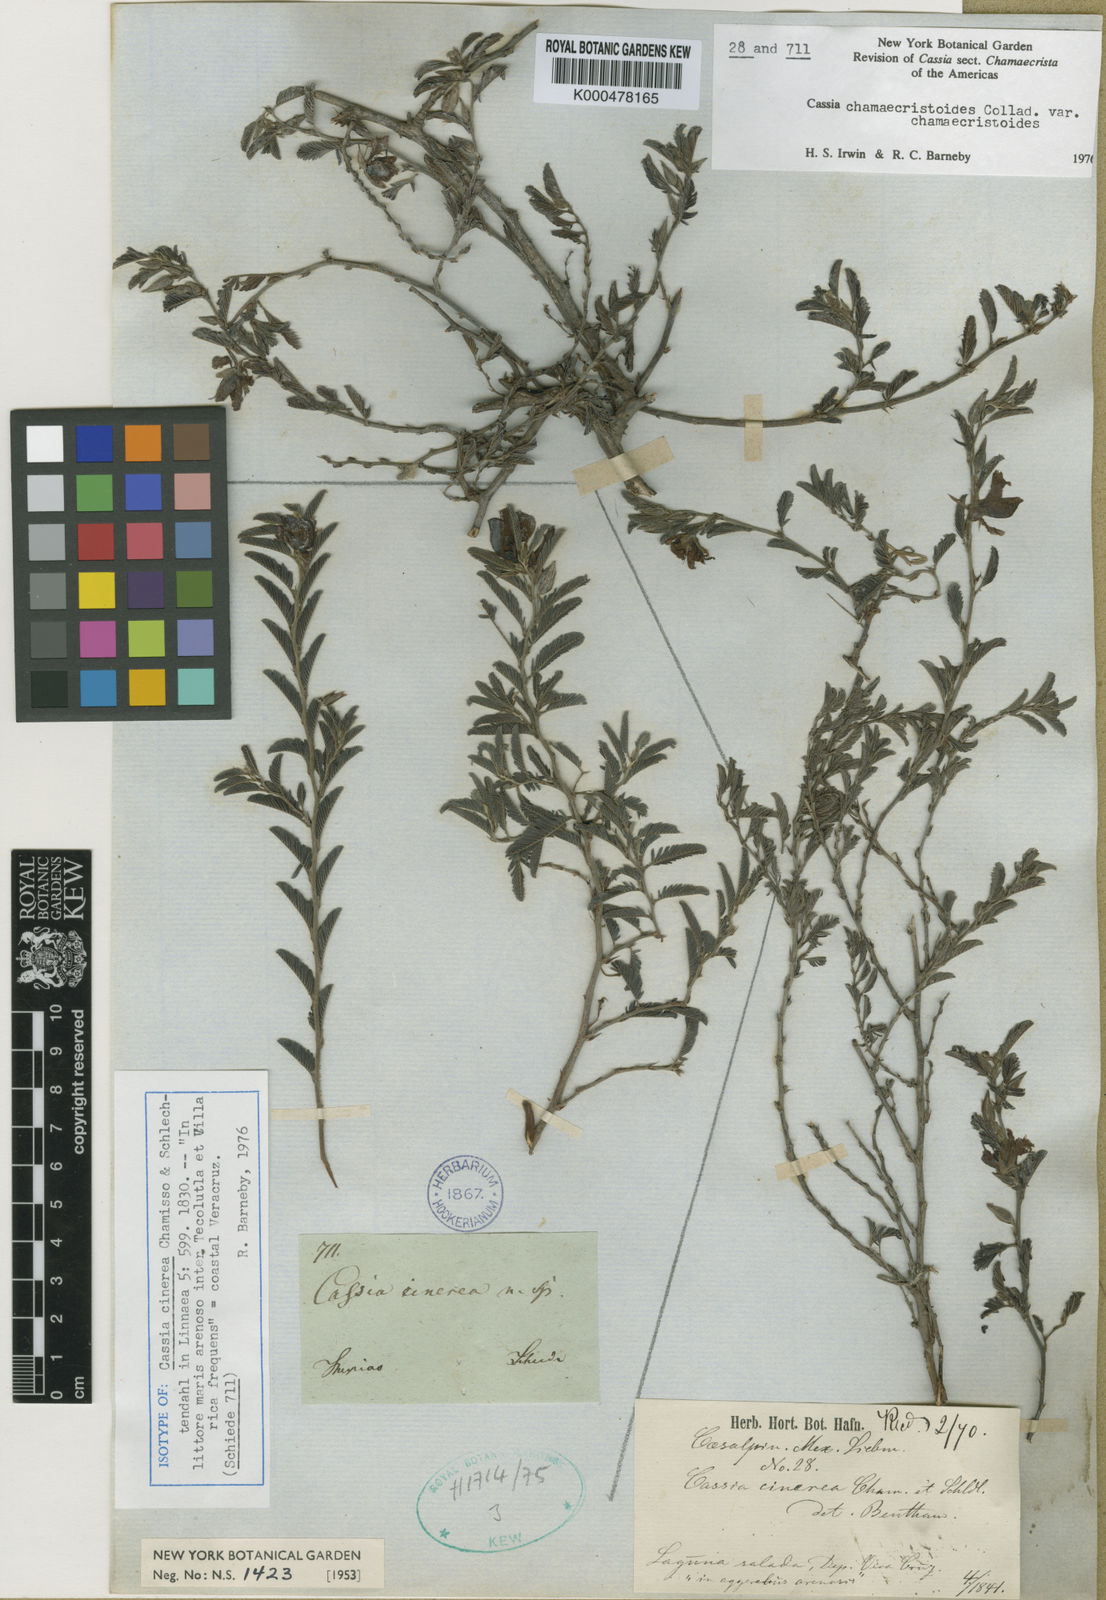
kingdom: Plantae
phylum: Tracheophyta
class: Magnoliopsida
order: Fabales
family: Fabaceae
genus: Chamaecrista
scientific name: Chamaecrista
